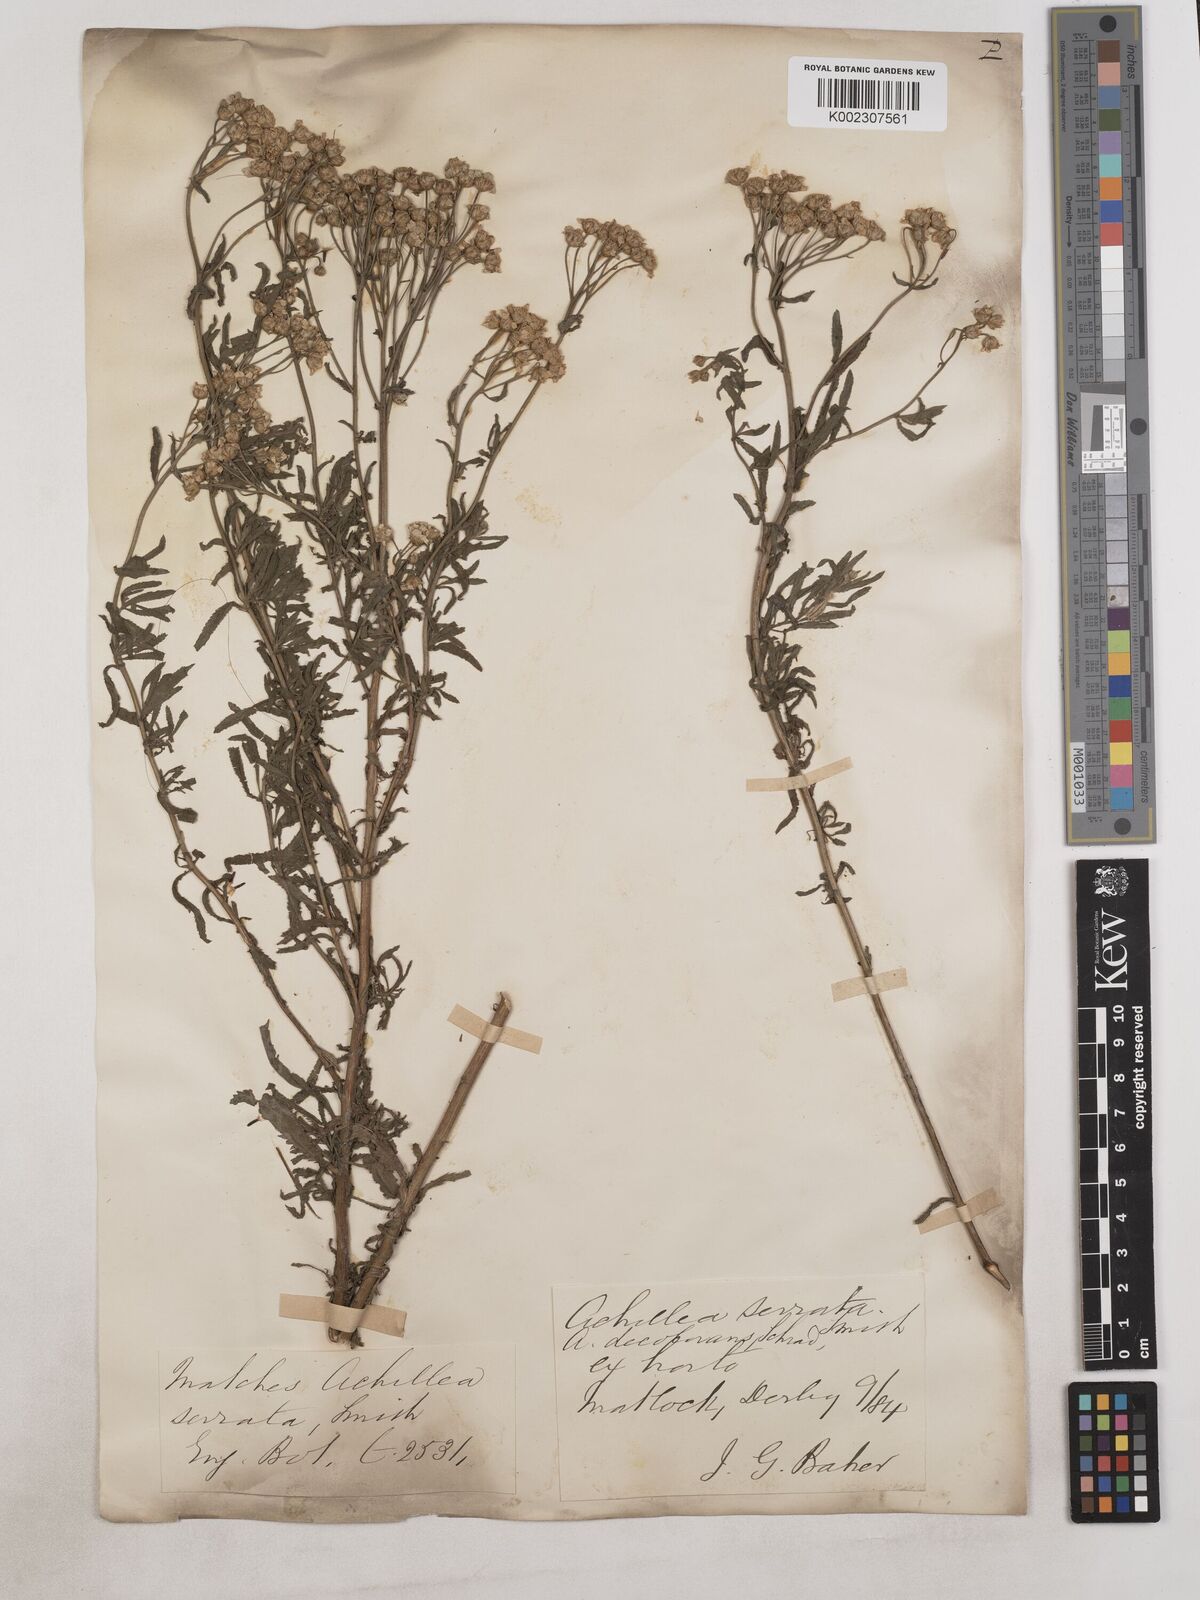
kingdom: Plantae
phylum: Tracheophyta
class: Magnoliopsida
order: Asterales
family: Asteraceae
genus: Achillea
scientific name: Achillea serrata
